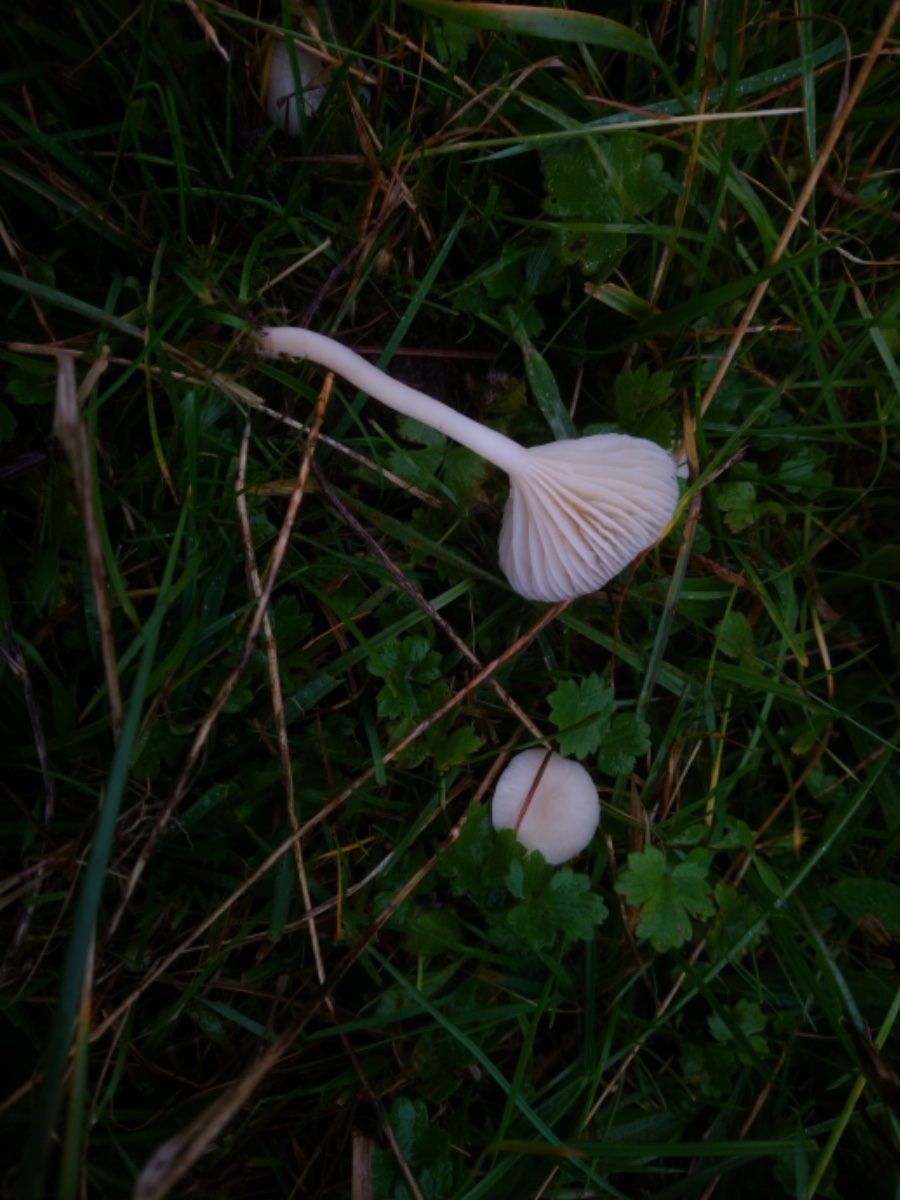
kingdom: Fungi
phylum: Basidiomycota
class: Agaricomycetes
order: Agaricales
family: Hygrophoraceae
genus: Cuphophyllus
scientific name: Cuphophyllus virgineus
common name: snehvid vokshat
